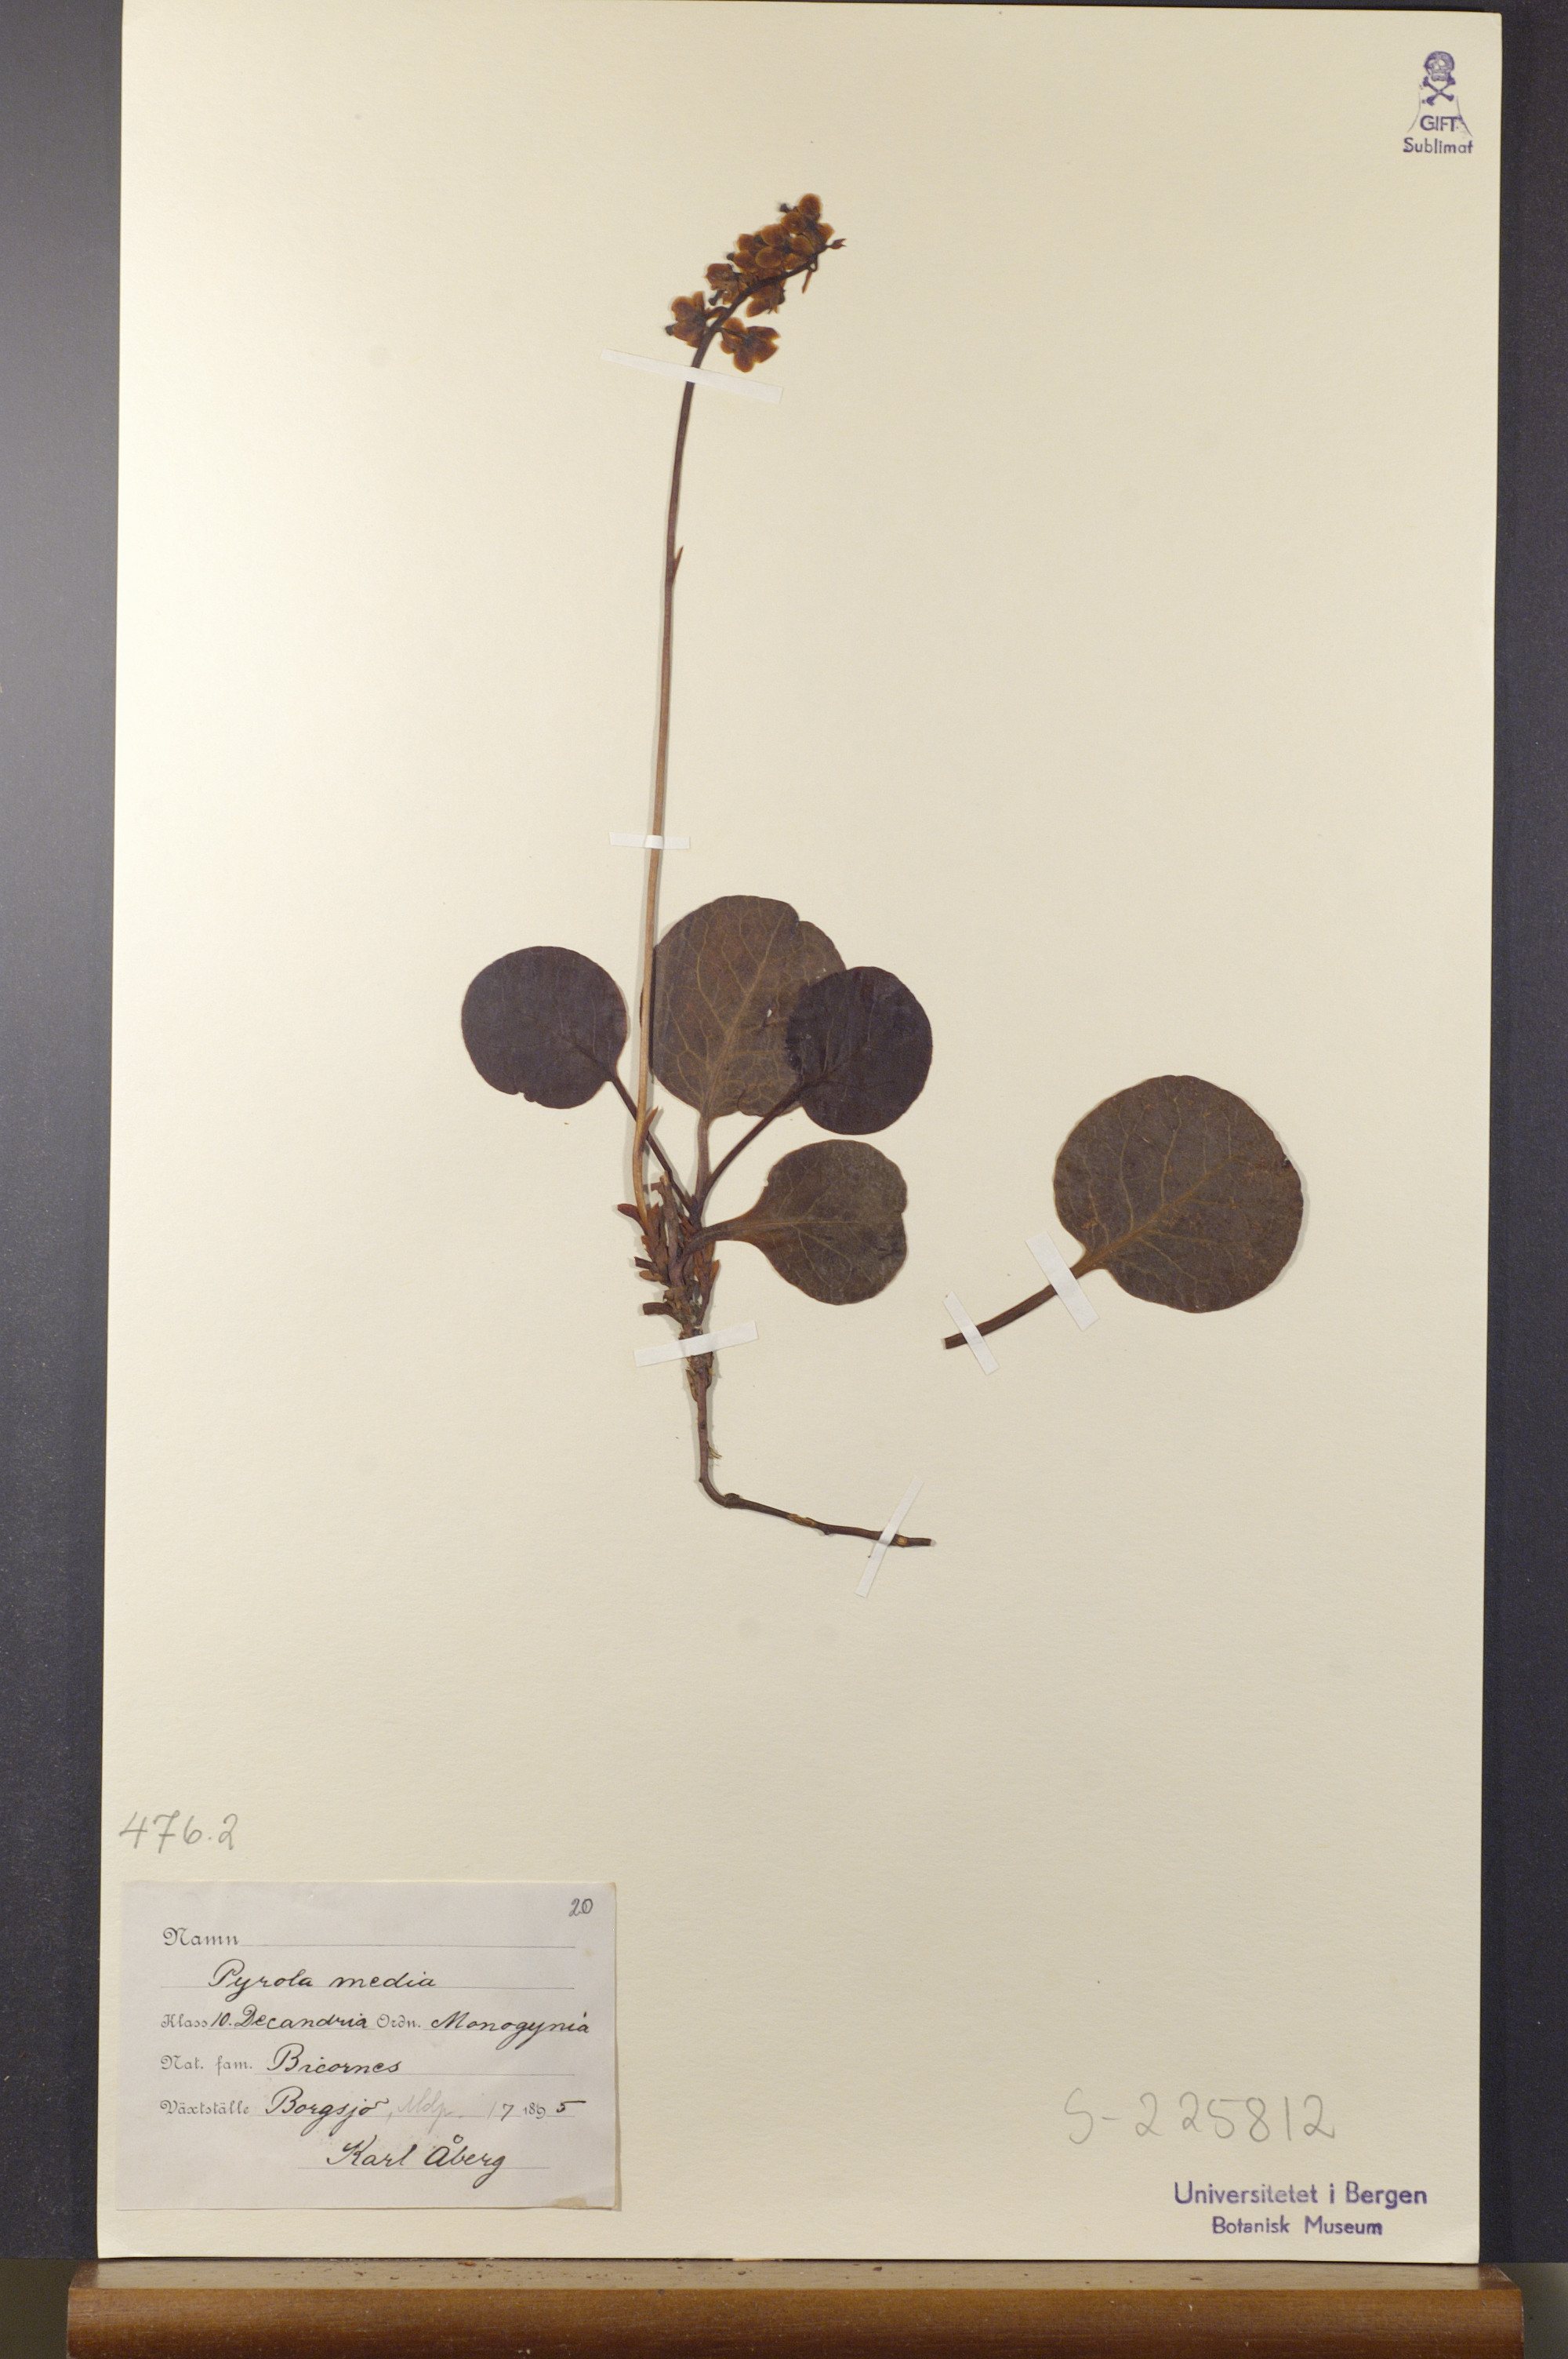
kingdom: Plantae
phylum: Tracheophyta
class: Magnoliopsida
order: Ericales
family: Ericaceae
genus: Pyrola
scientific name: Pyrola media
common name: Intermediate wintergreen
